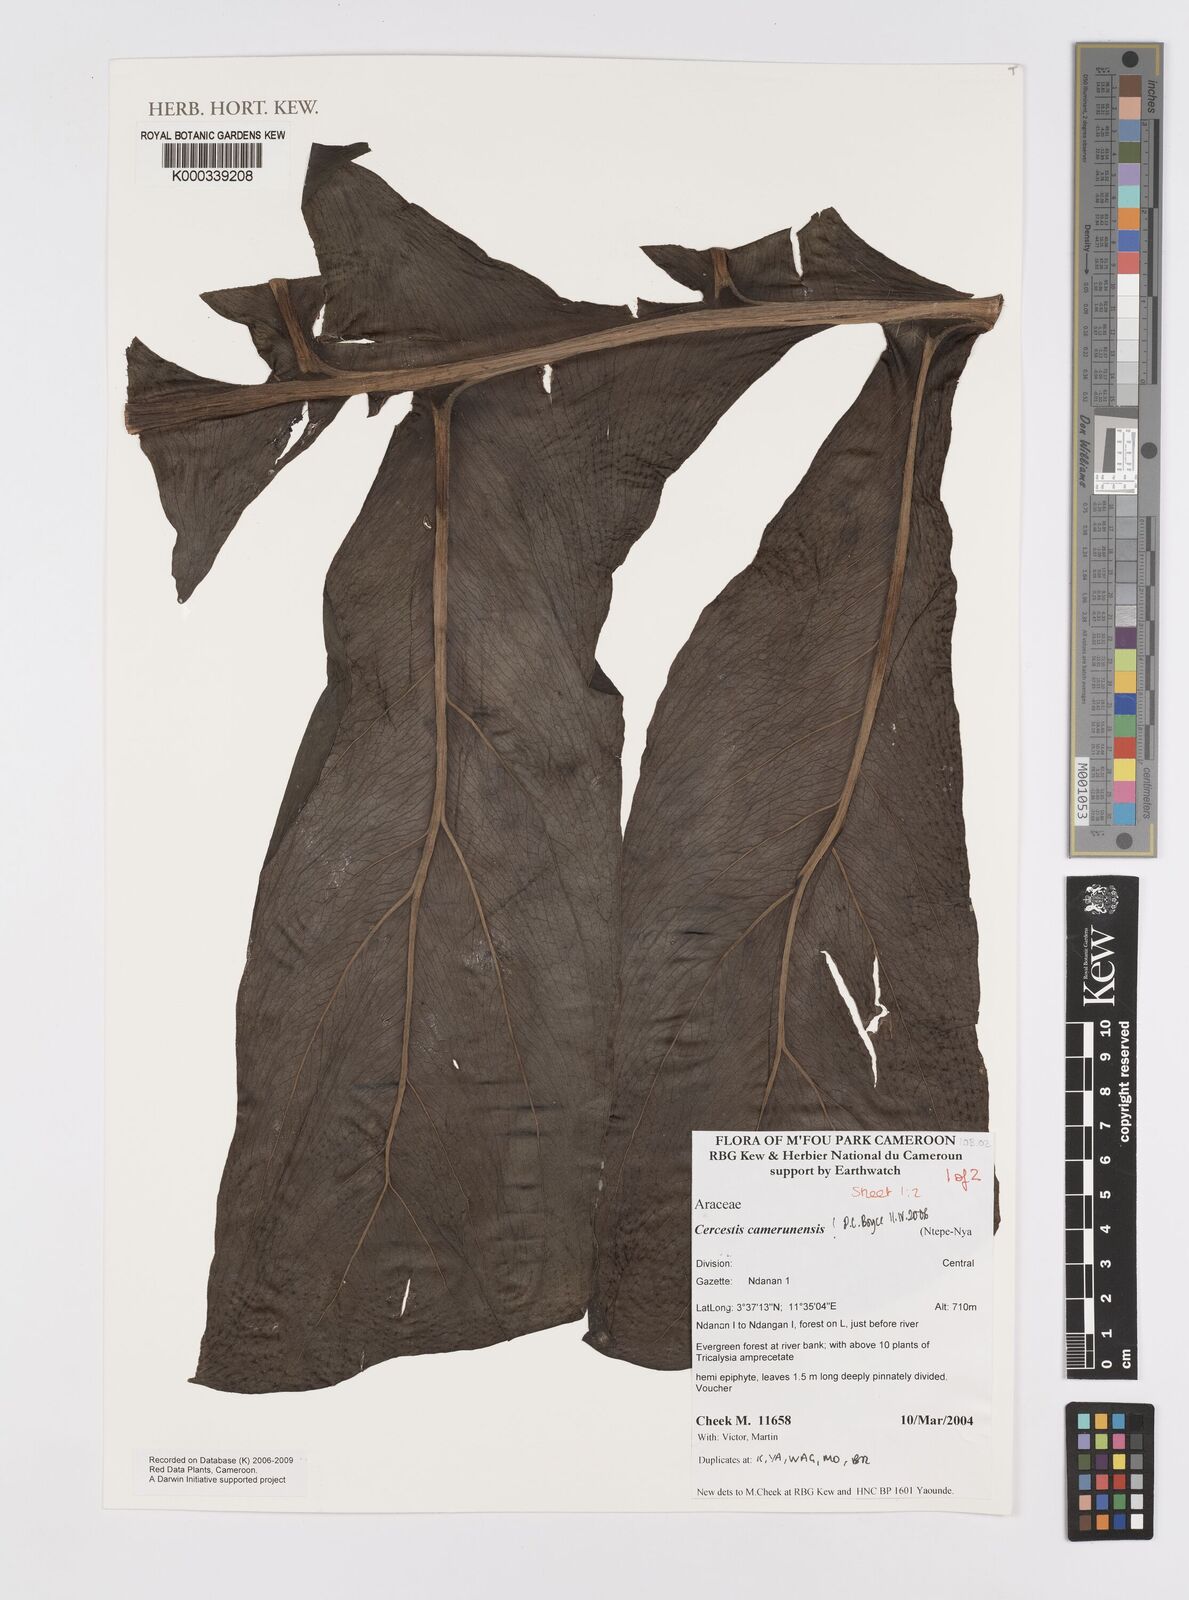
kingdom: Plantae
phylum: Tracheophyta
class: Liliopsida
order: Alismatales
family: Araceae
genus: Cercestis
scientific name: Cercestis camerunensis
